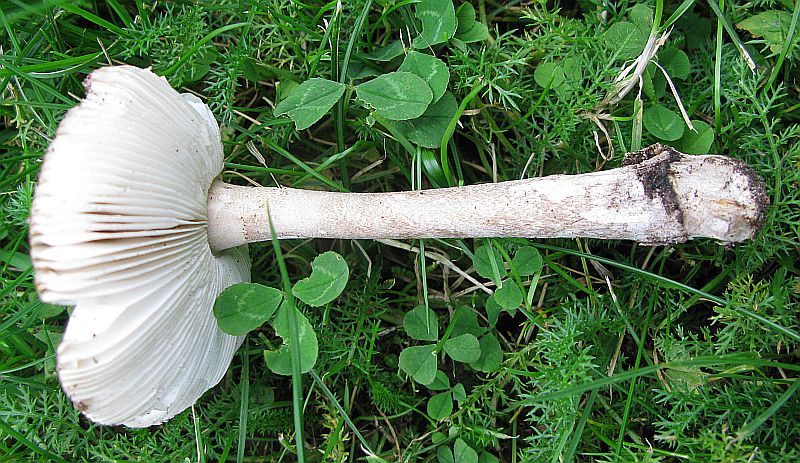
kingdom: Fungi
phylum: Basidiomycota
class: Agaricomycetes
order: Agaricales
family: Amanitaceae
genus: Amanita
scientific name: Amanita submembranacea
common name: gråspættet kam-fluesvamp
